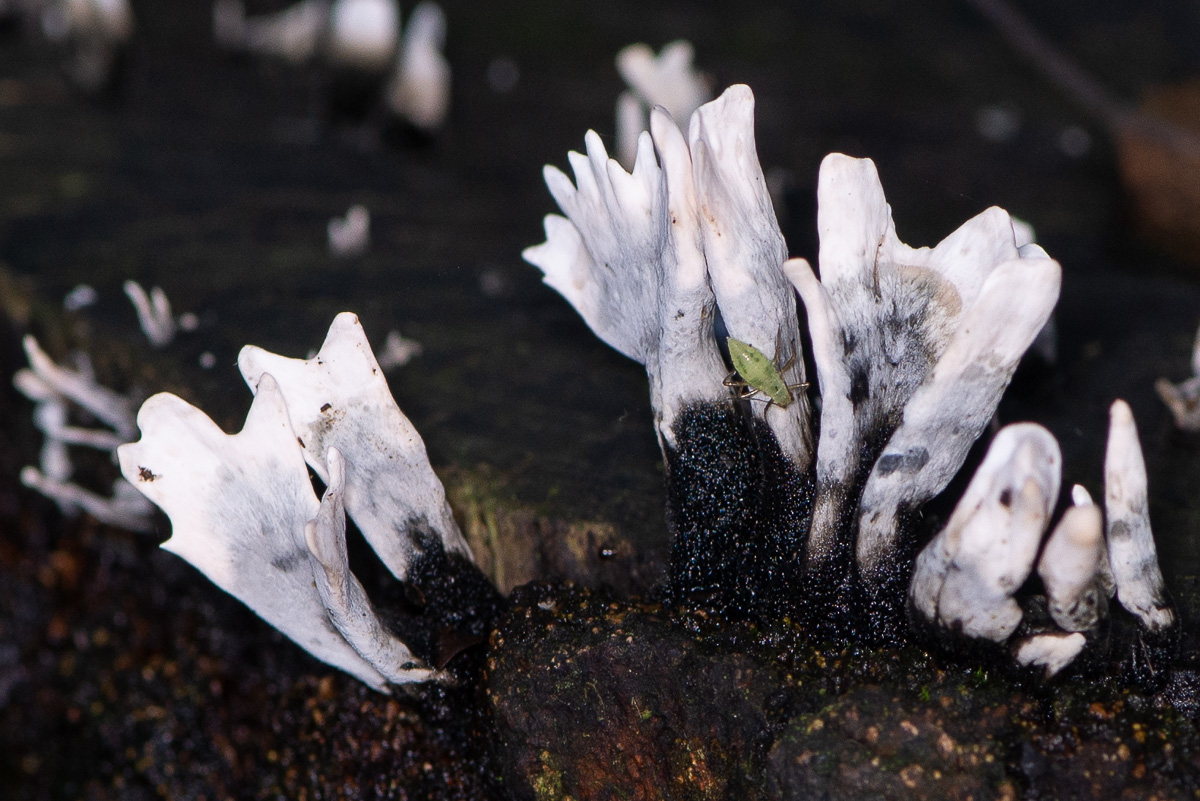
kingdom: Fungi
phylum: Ascomycota
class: Sordariomycetes
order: Xylariales
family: Xylariaceae
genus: Xylaria
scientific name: Xylaria hypoxylon
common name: grenet stødsvamp
